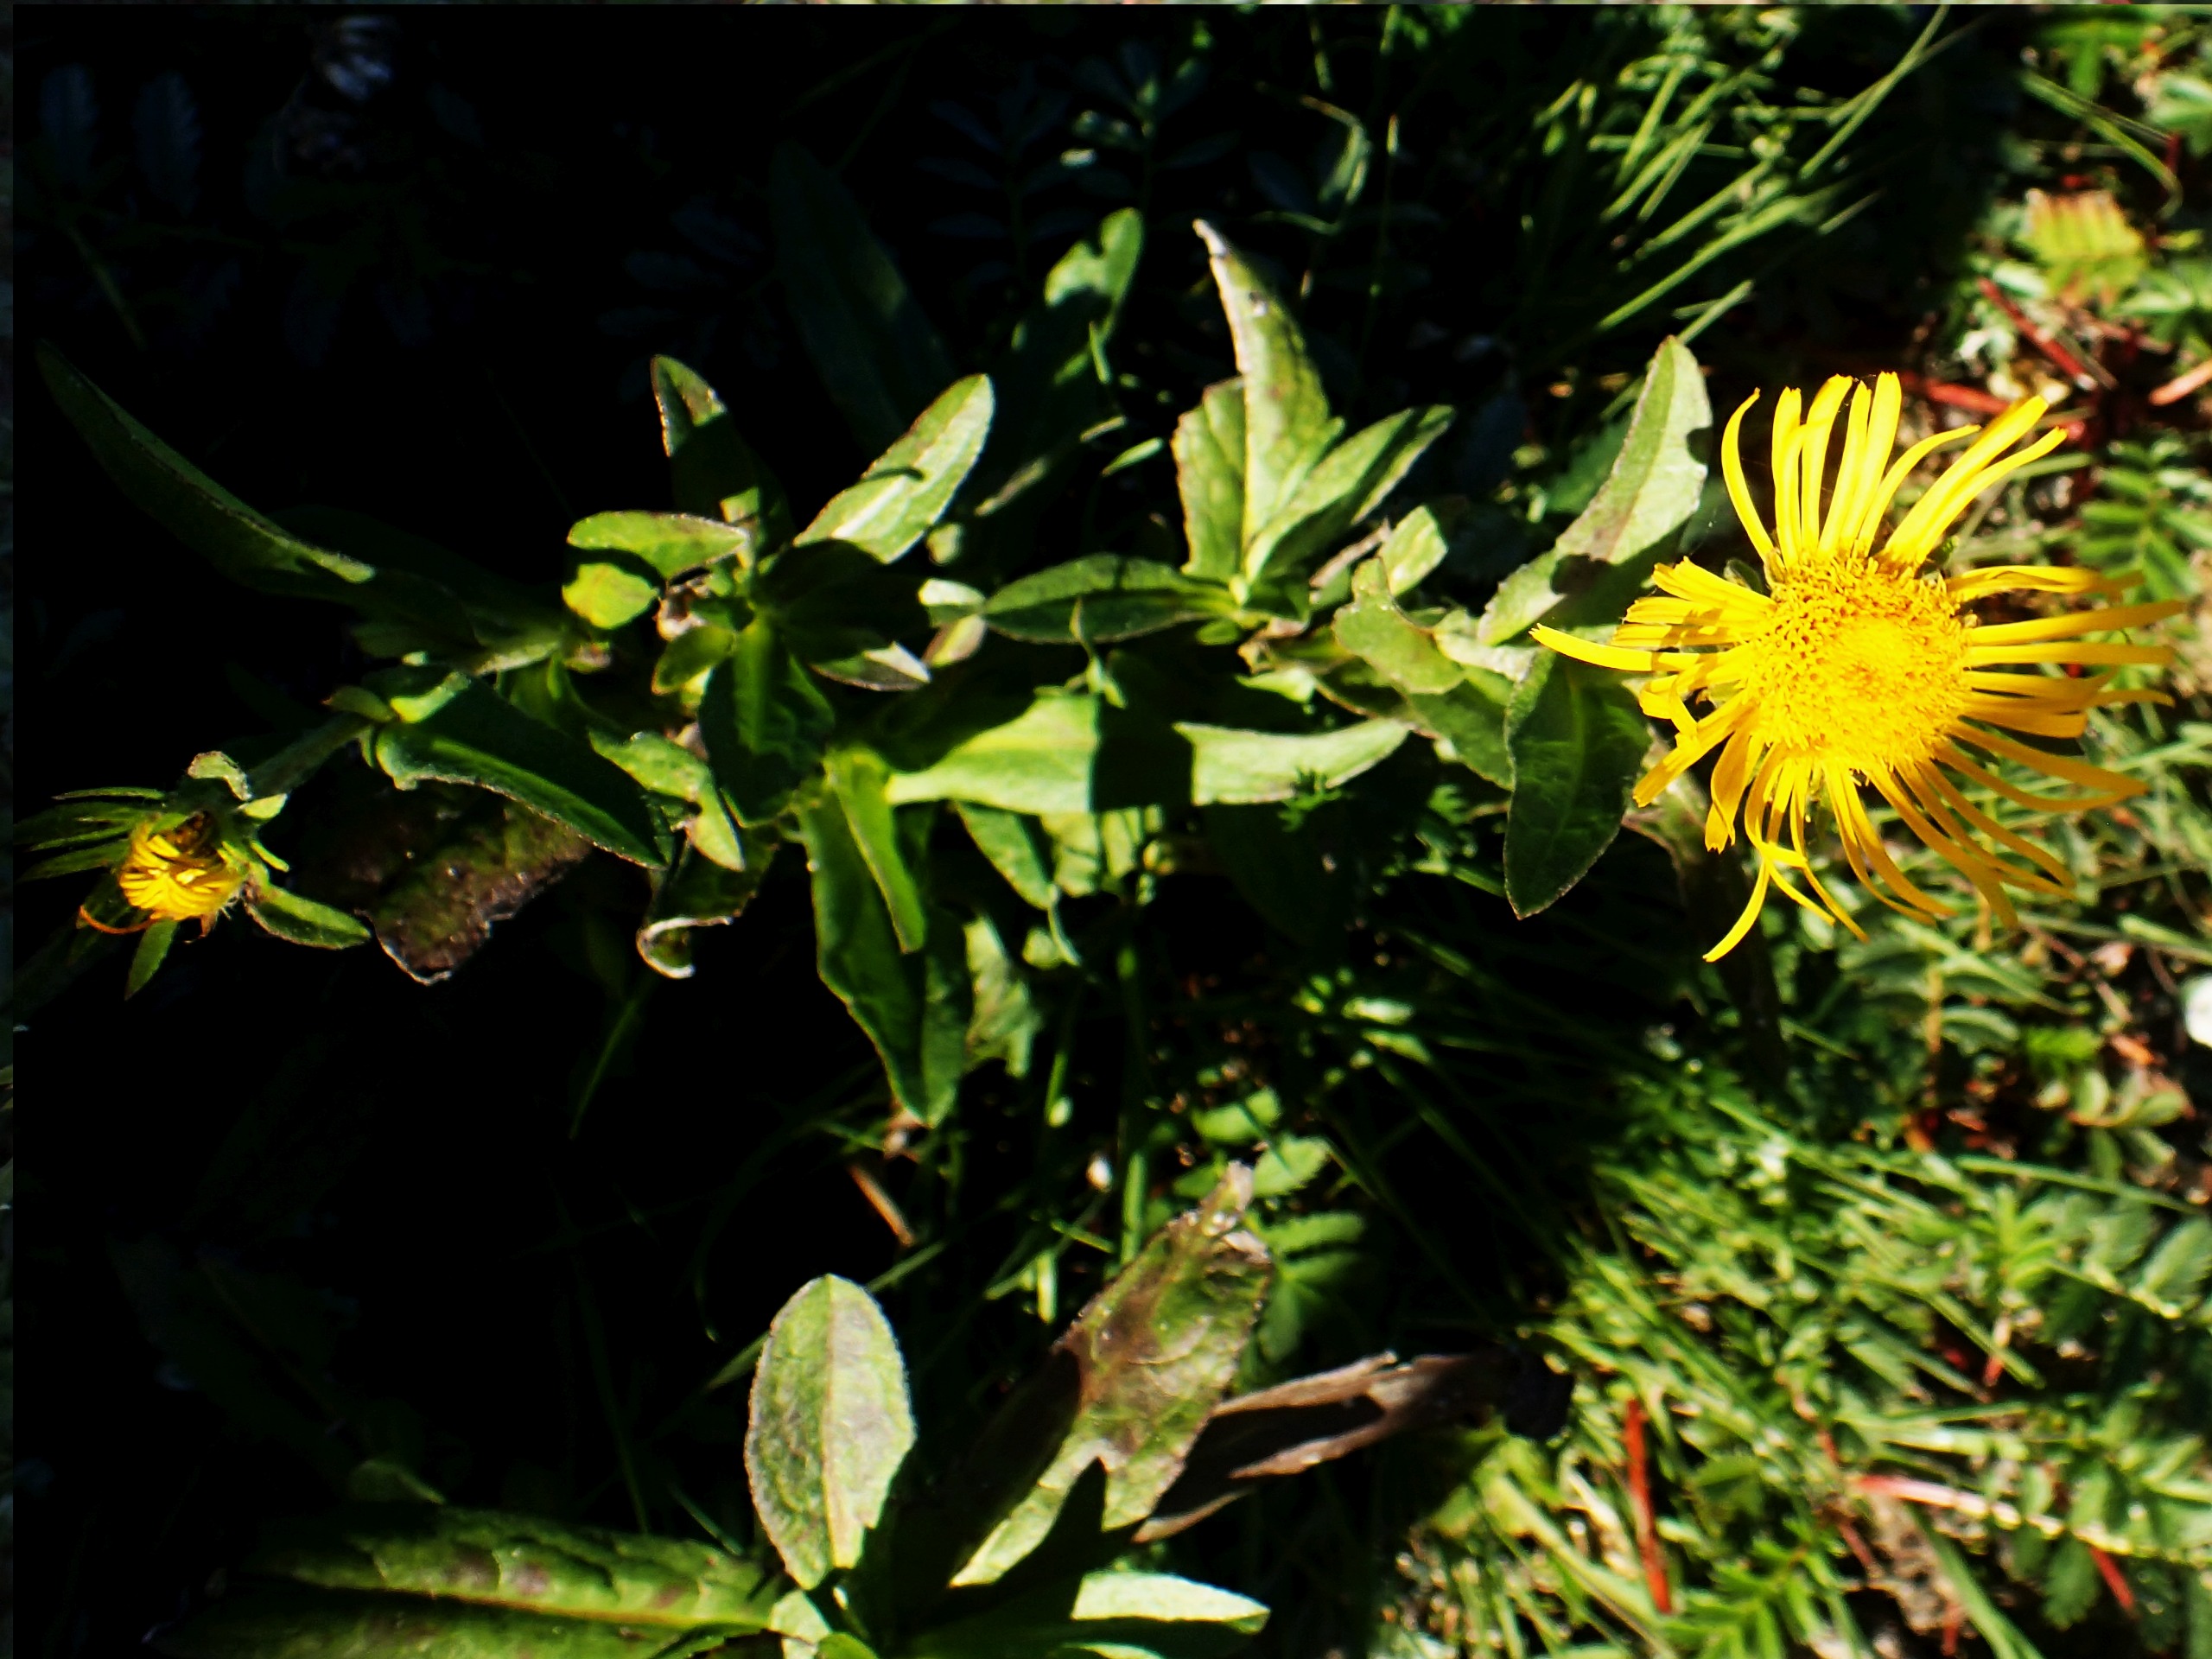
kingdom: Plantae
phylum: Tracheophyta
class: Magnoliopsida
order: Asterales
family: Asteraceae
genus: Pentanema
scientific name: Pentanema britannicum
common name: Soløje-alant
